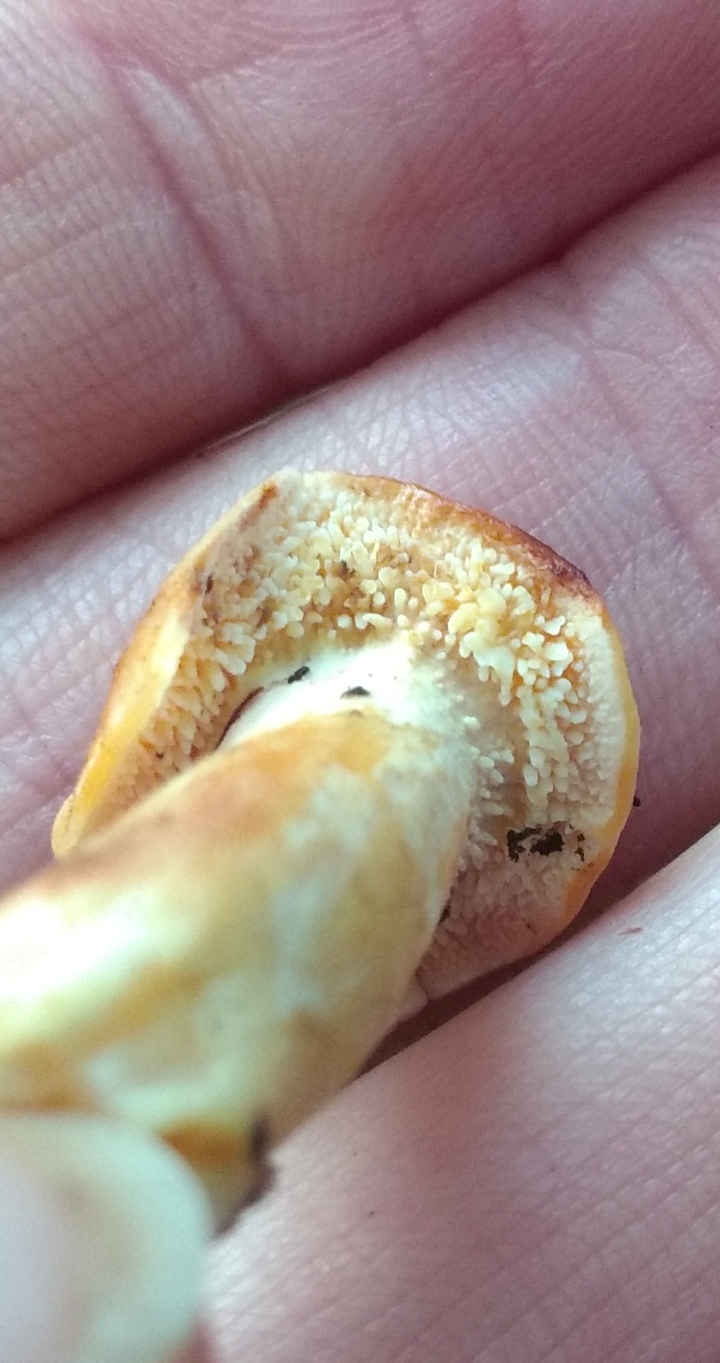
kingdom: Fungi
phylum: Basidiomycota
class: Agaricomycetes
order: Cantharellales
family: Hydnaceae
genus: Hydnum
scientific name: Hydnum
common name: pigsvamp
